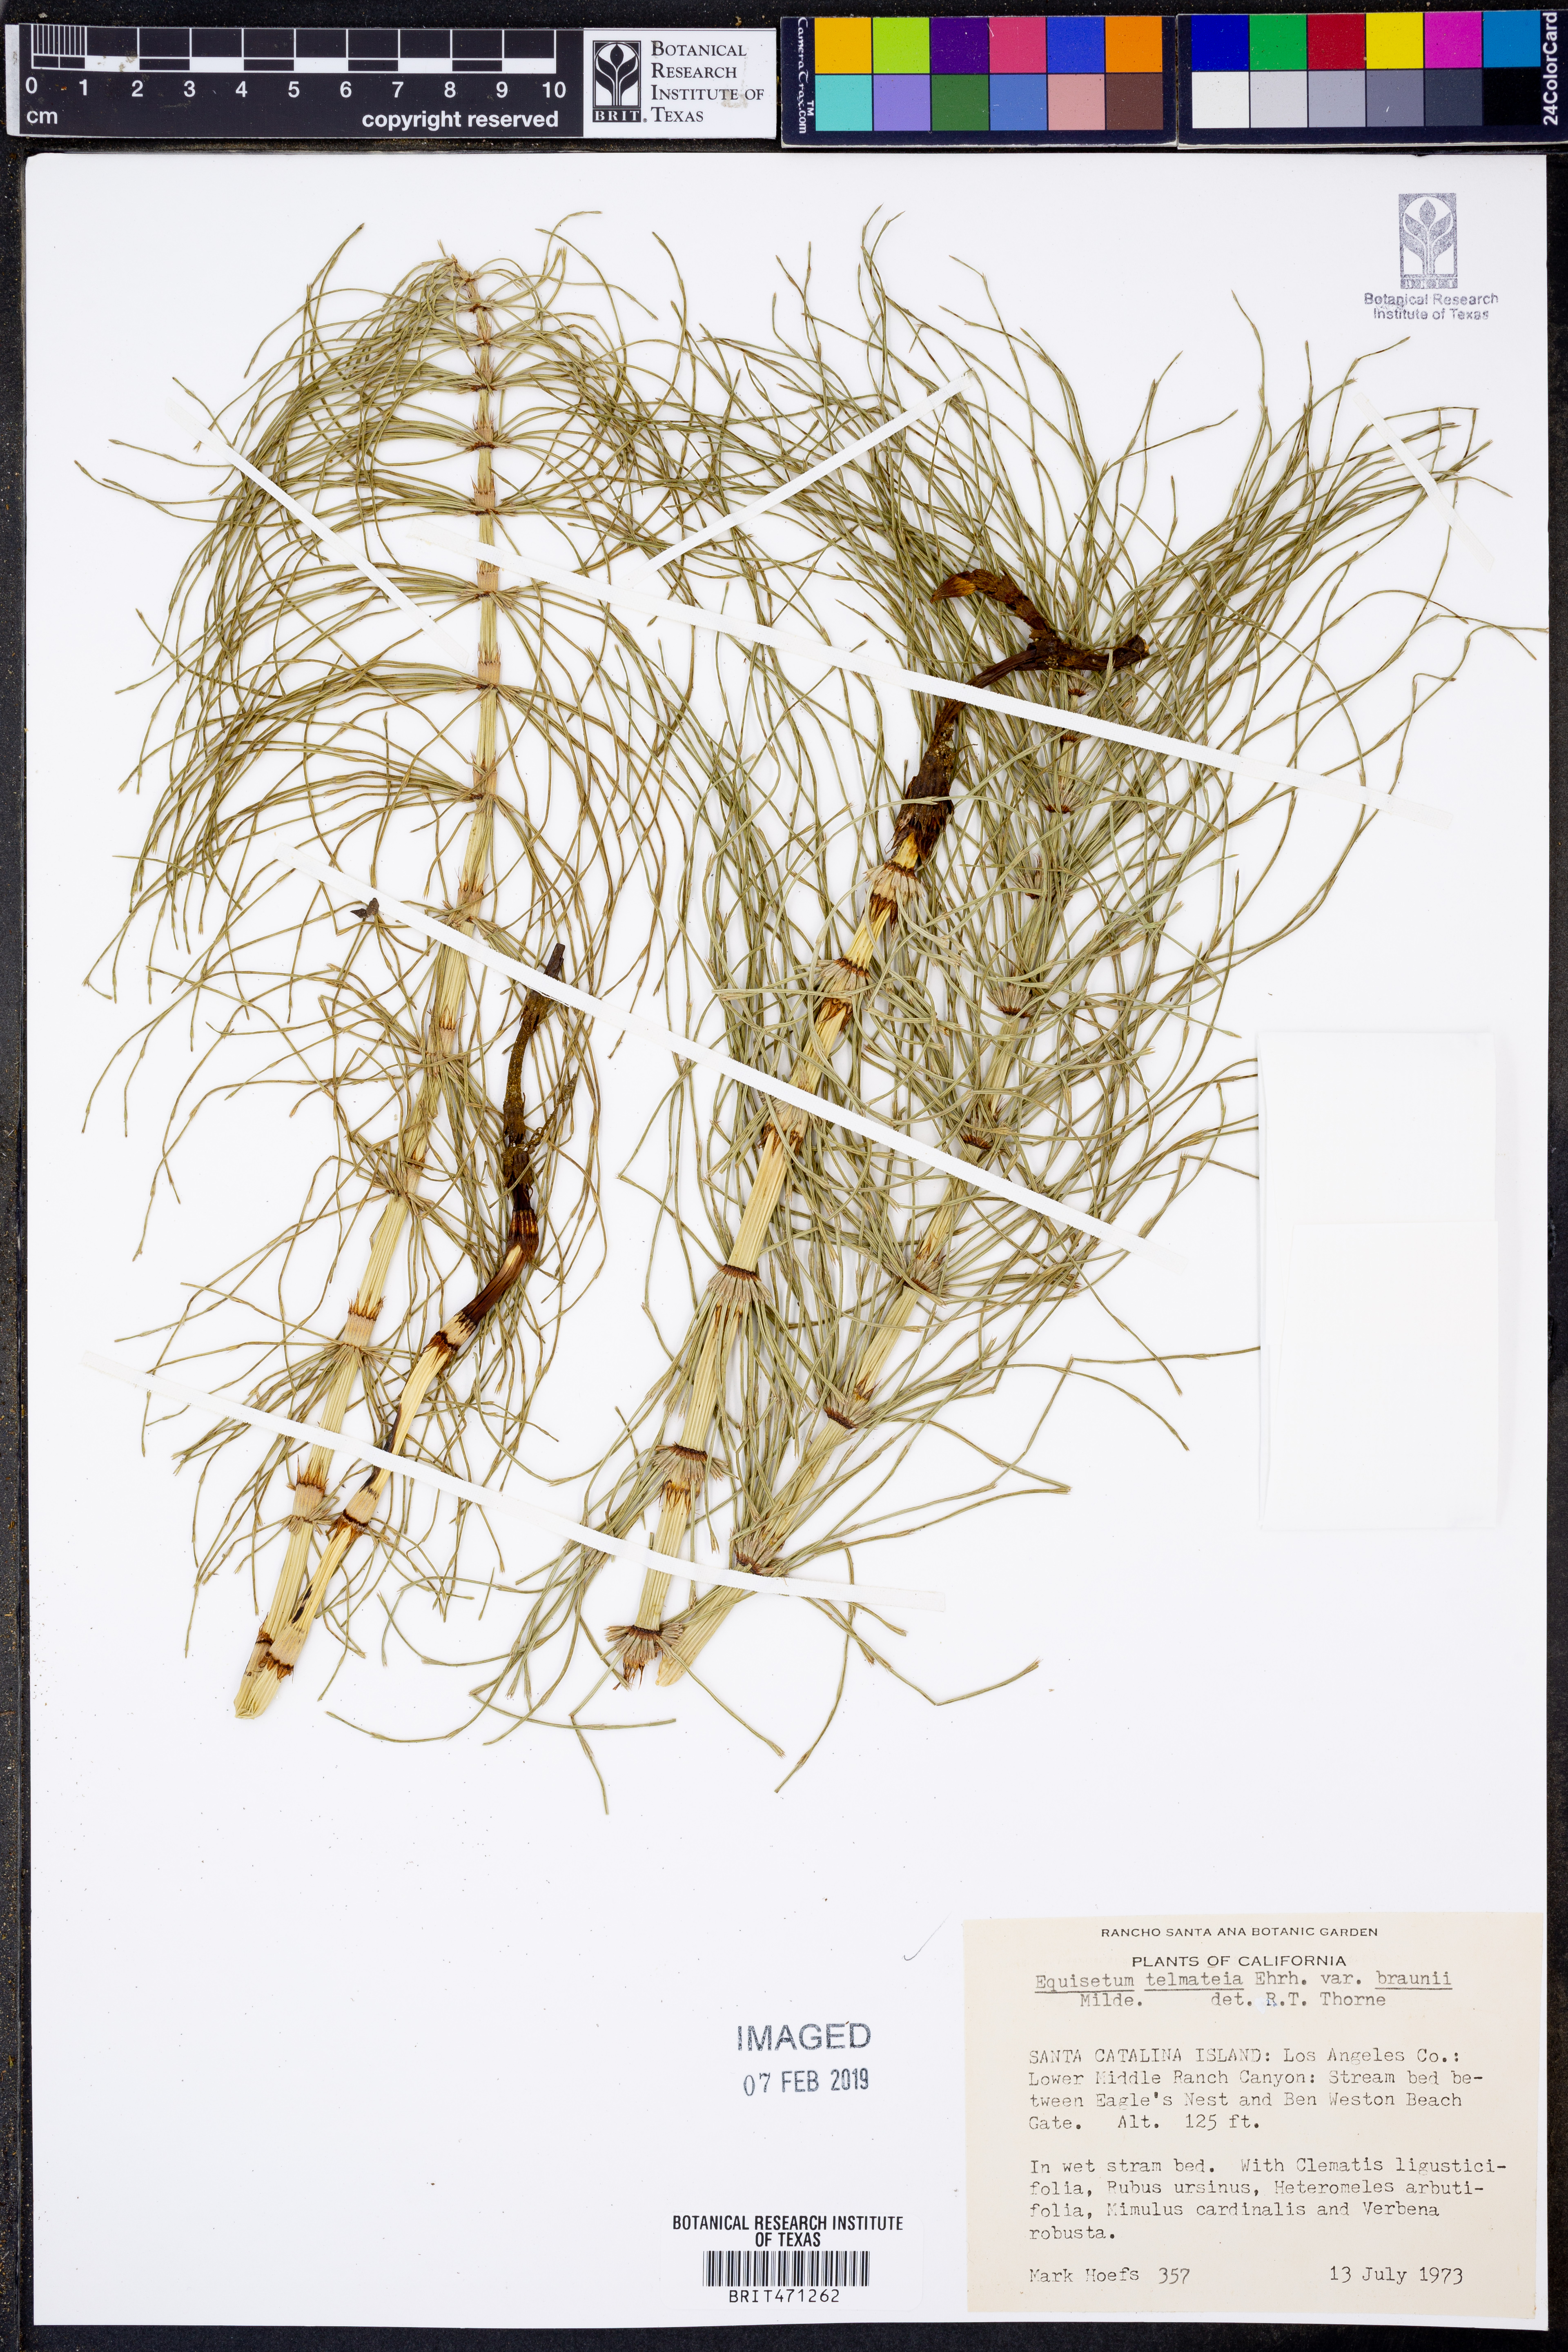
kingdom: Plantae
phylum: Tracheophyta
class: Polypodiopsida
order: Equisetales
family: Equisetaceae
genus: Equisetum
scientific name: Equisetum braunii
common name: Braun's horsetail
